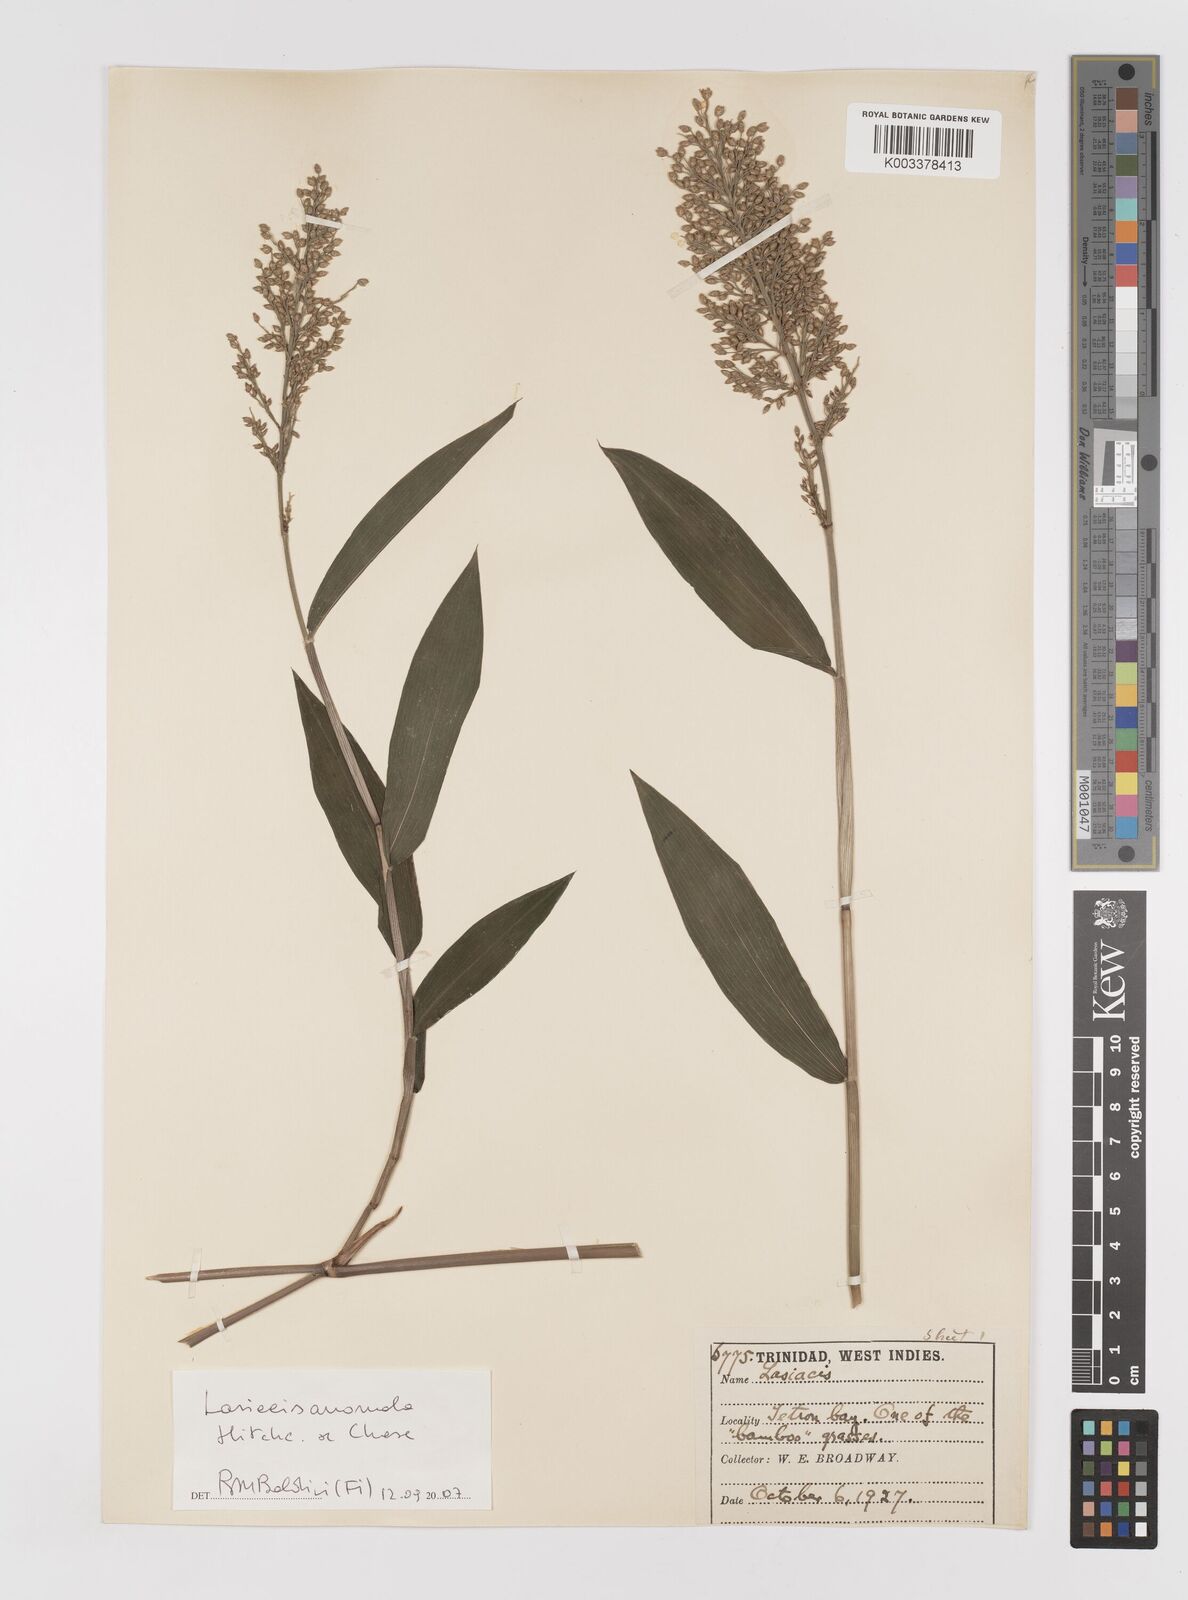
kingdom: Plantae
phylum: Tracheophyta
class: Liliopsida
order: Poales
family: Poaceae
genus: Lasiacis
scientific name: Lasiacis anomala
